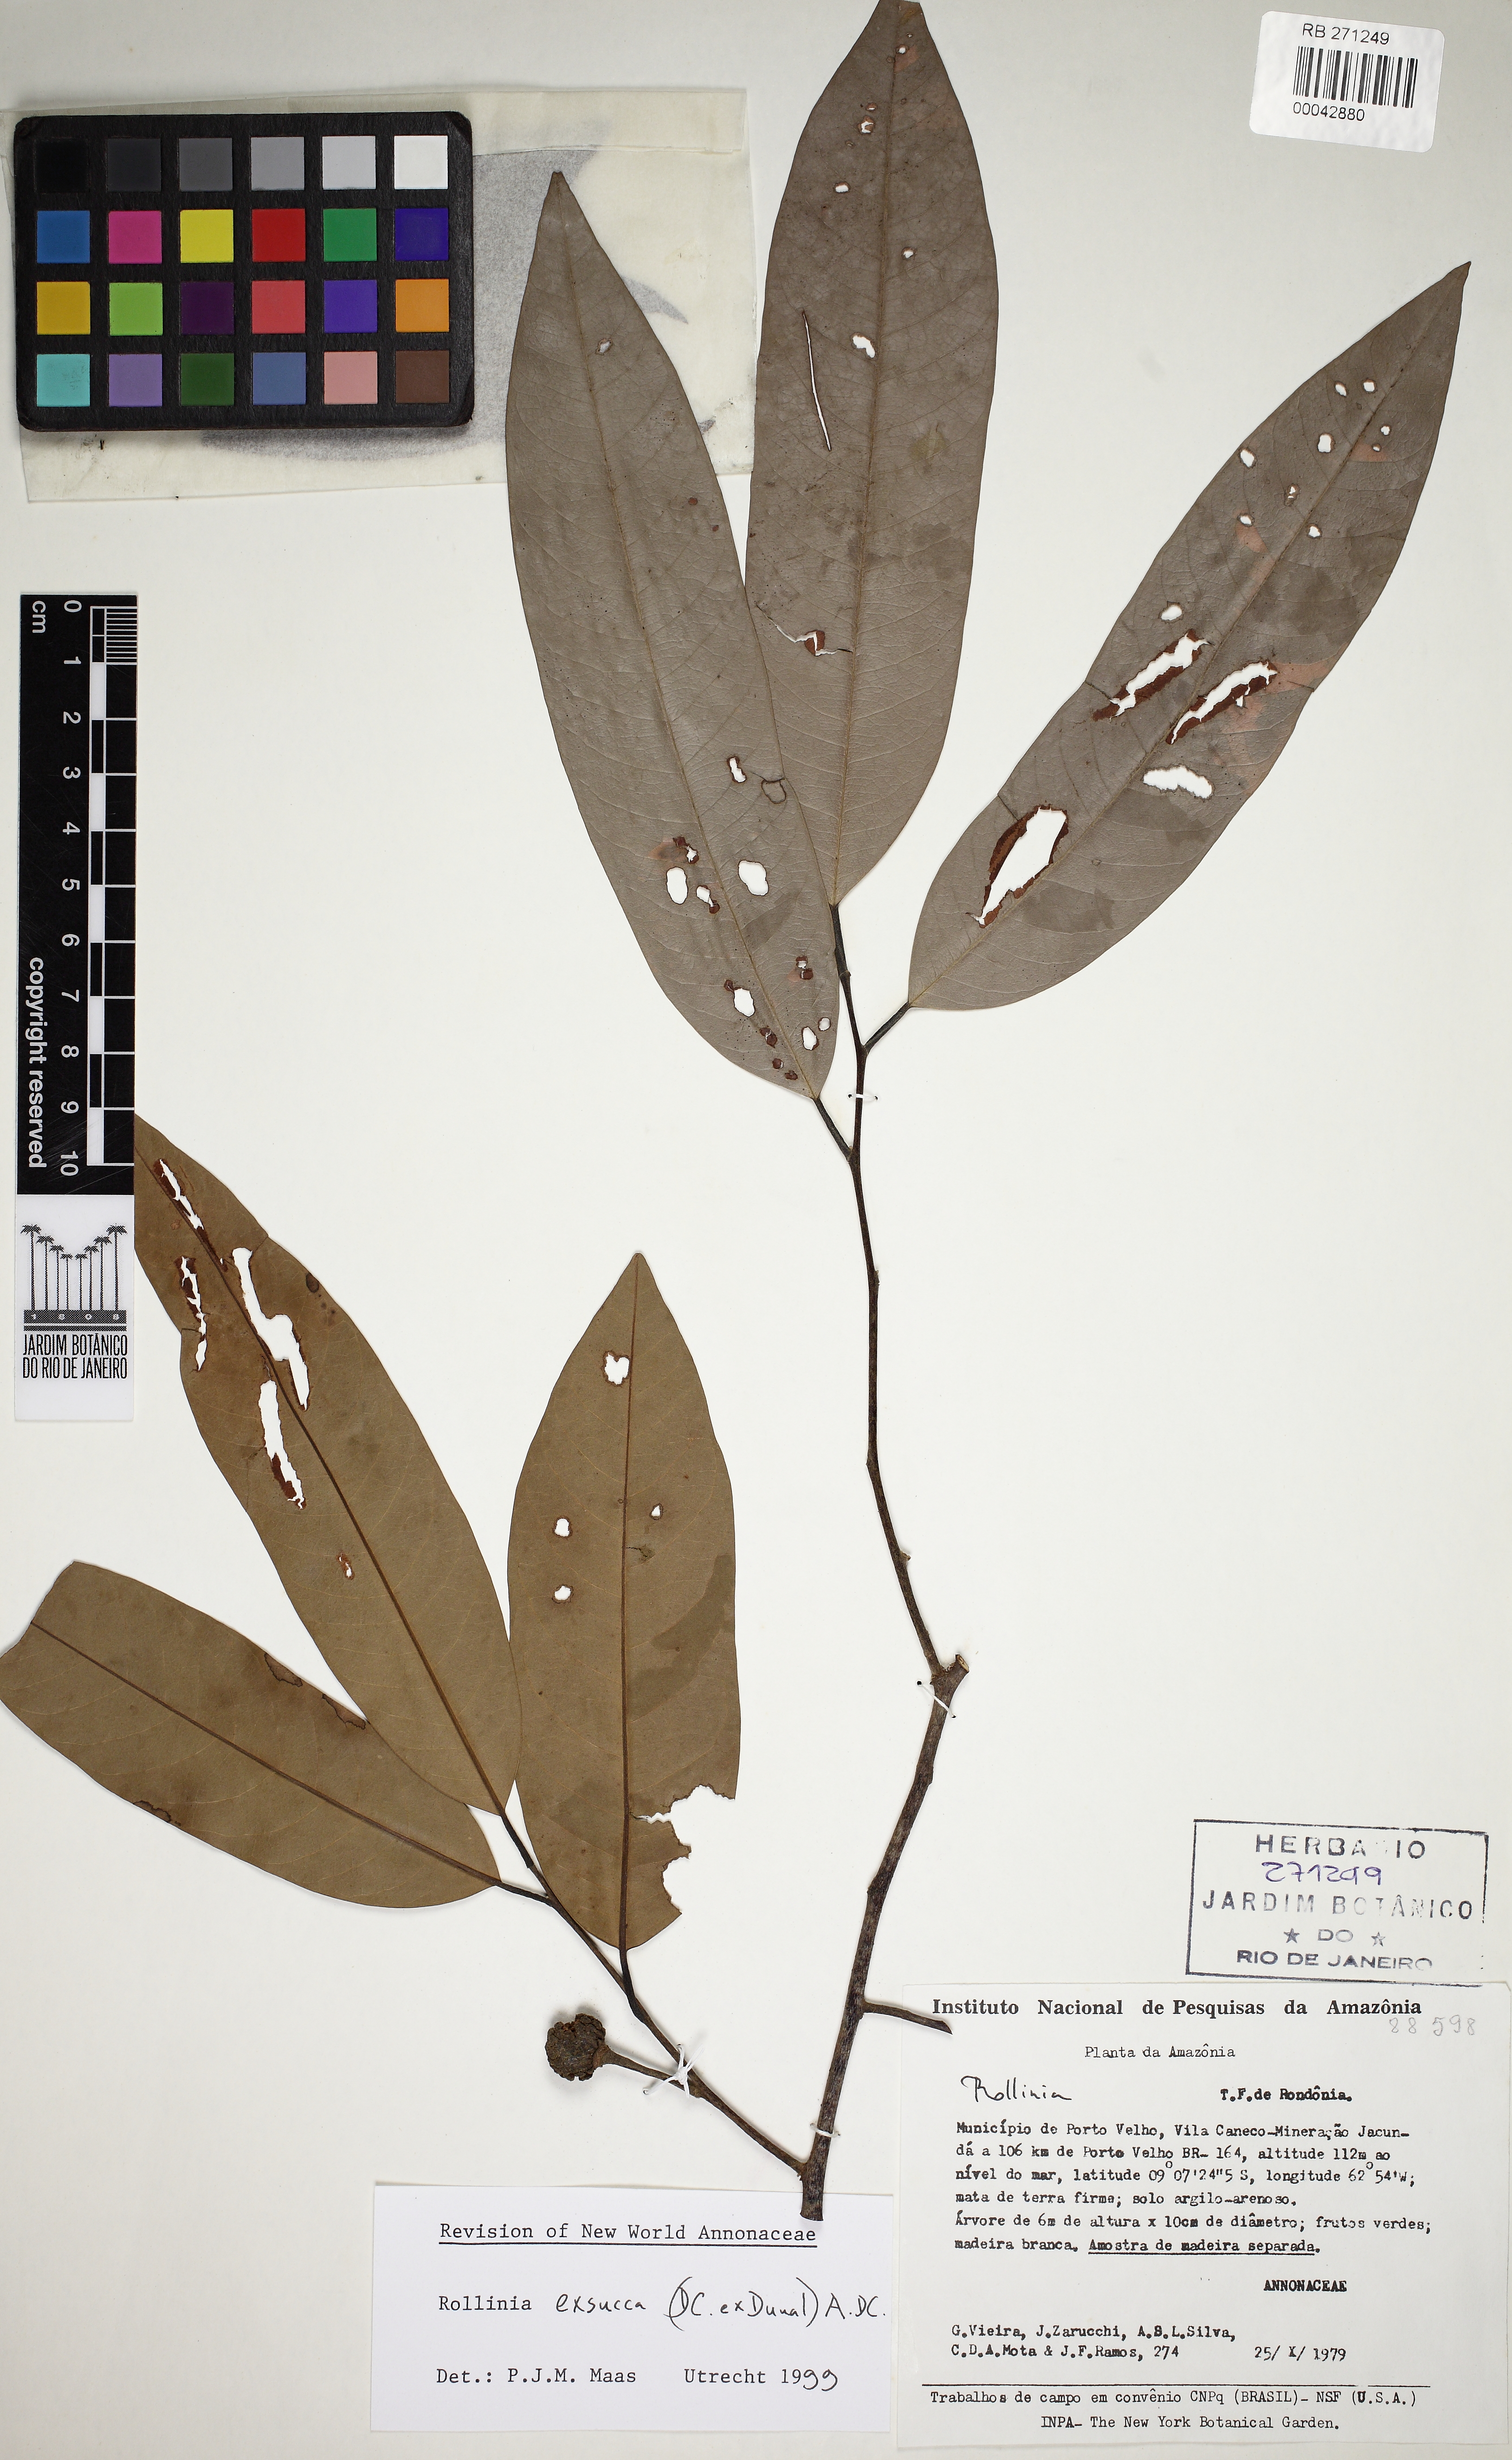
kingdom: Plantae
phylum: Tracheophyta
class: Magnoliopsida
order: Magnoliales
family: Annonaceae
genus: Annona
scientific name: Annona emarginata
